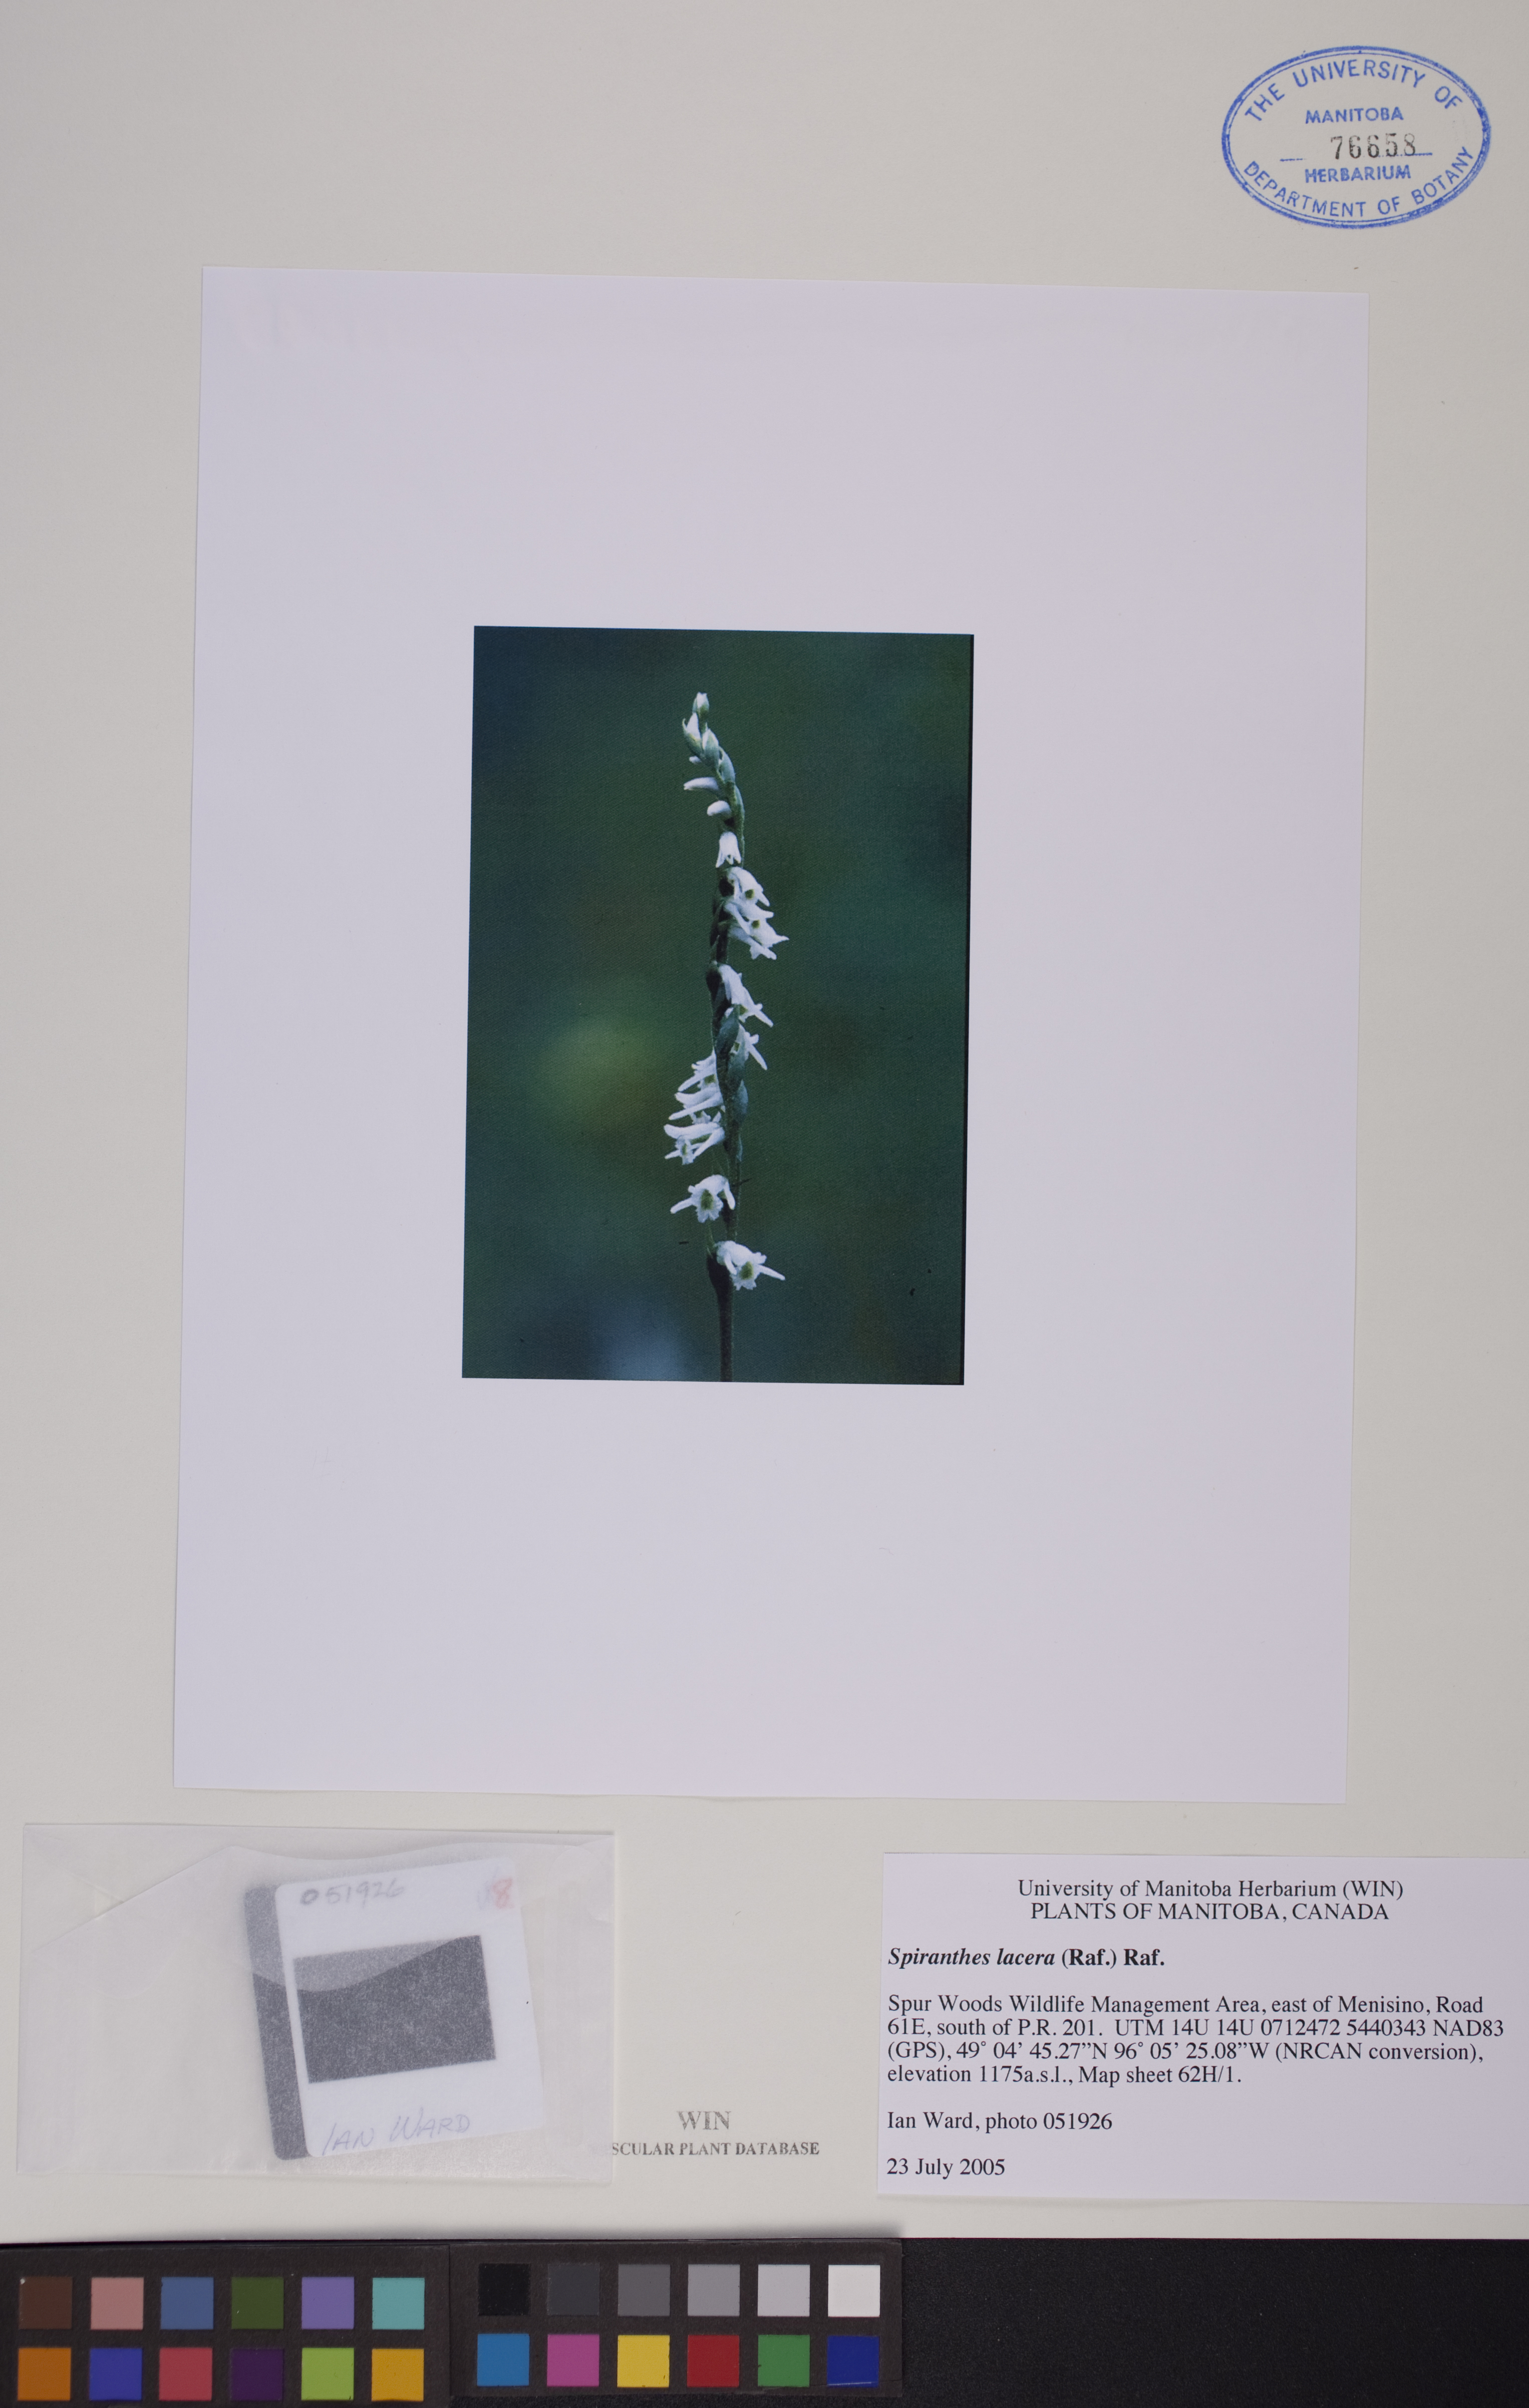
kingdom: Plantae
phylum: Tracheophyta
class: Liliopsida
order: Asparagales
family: Orchidaceae
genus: Spiranthes
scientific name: Spiranthes lacera
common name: Northern slender ladies'-tresses
